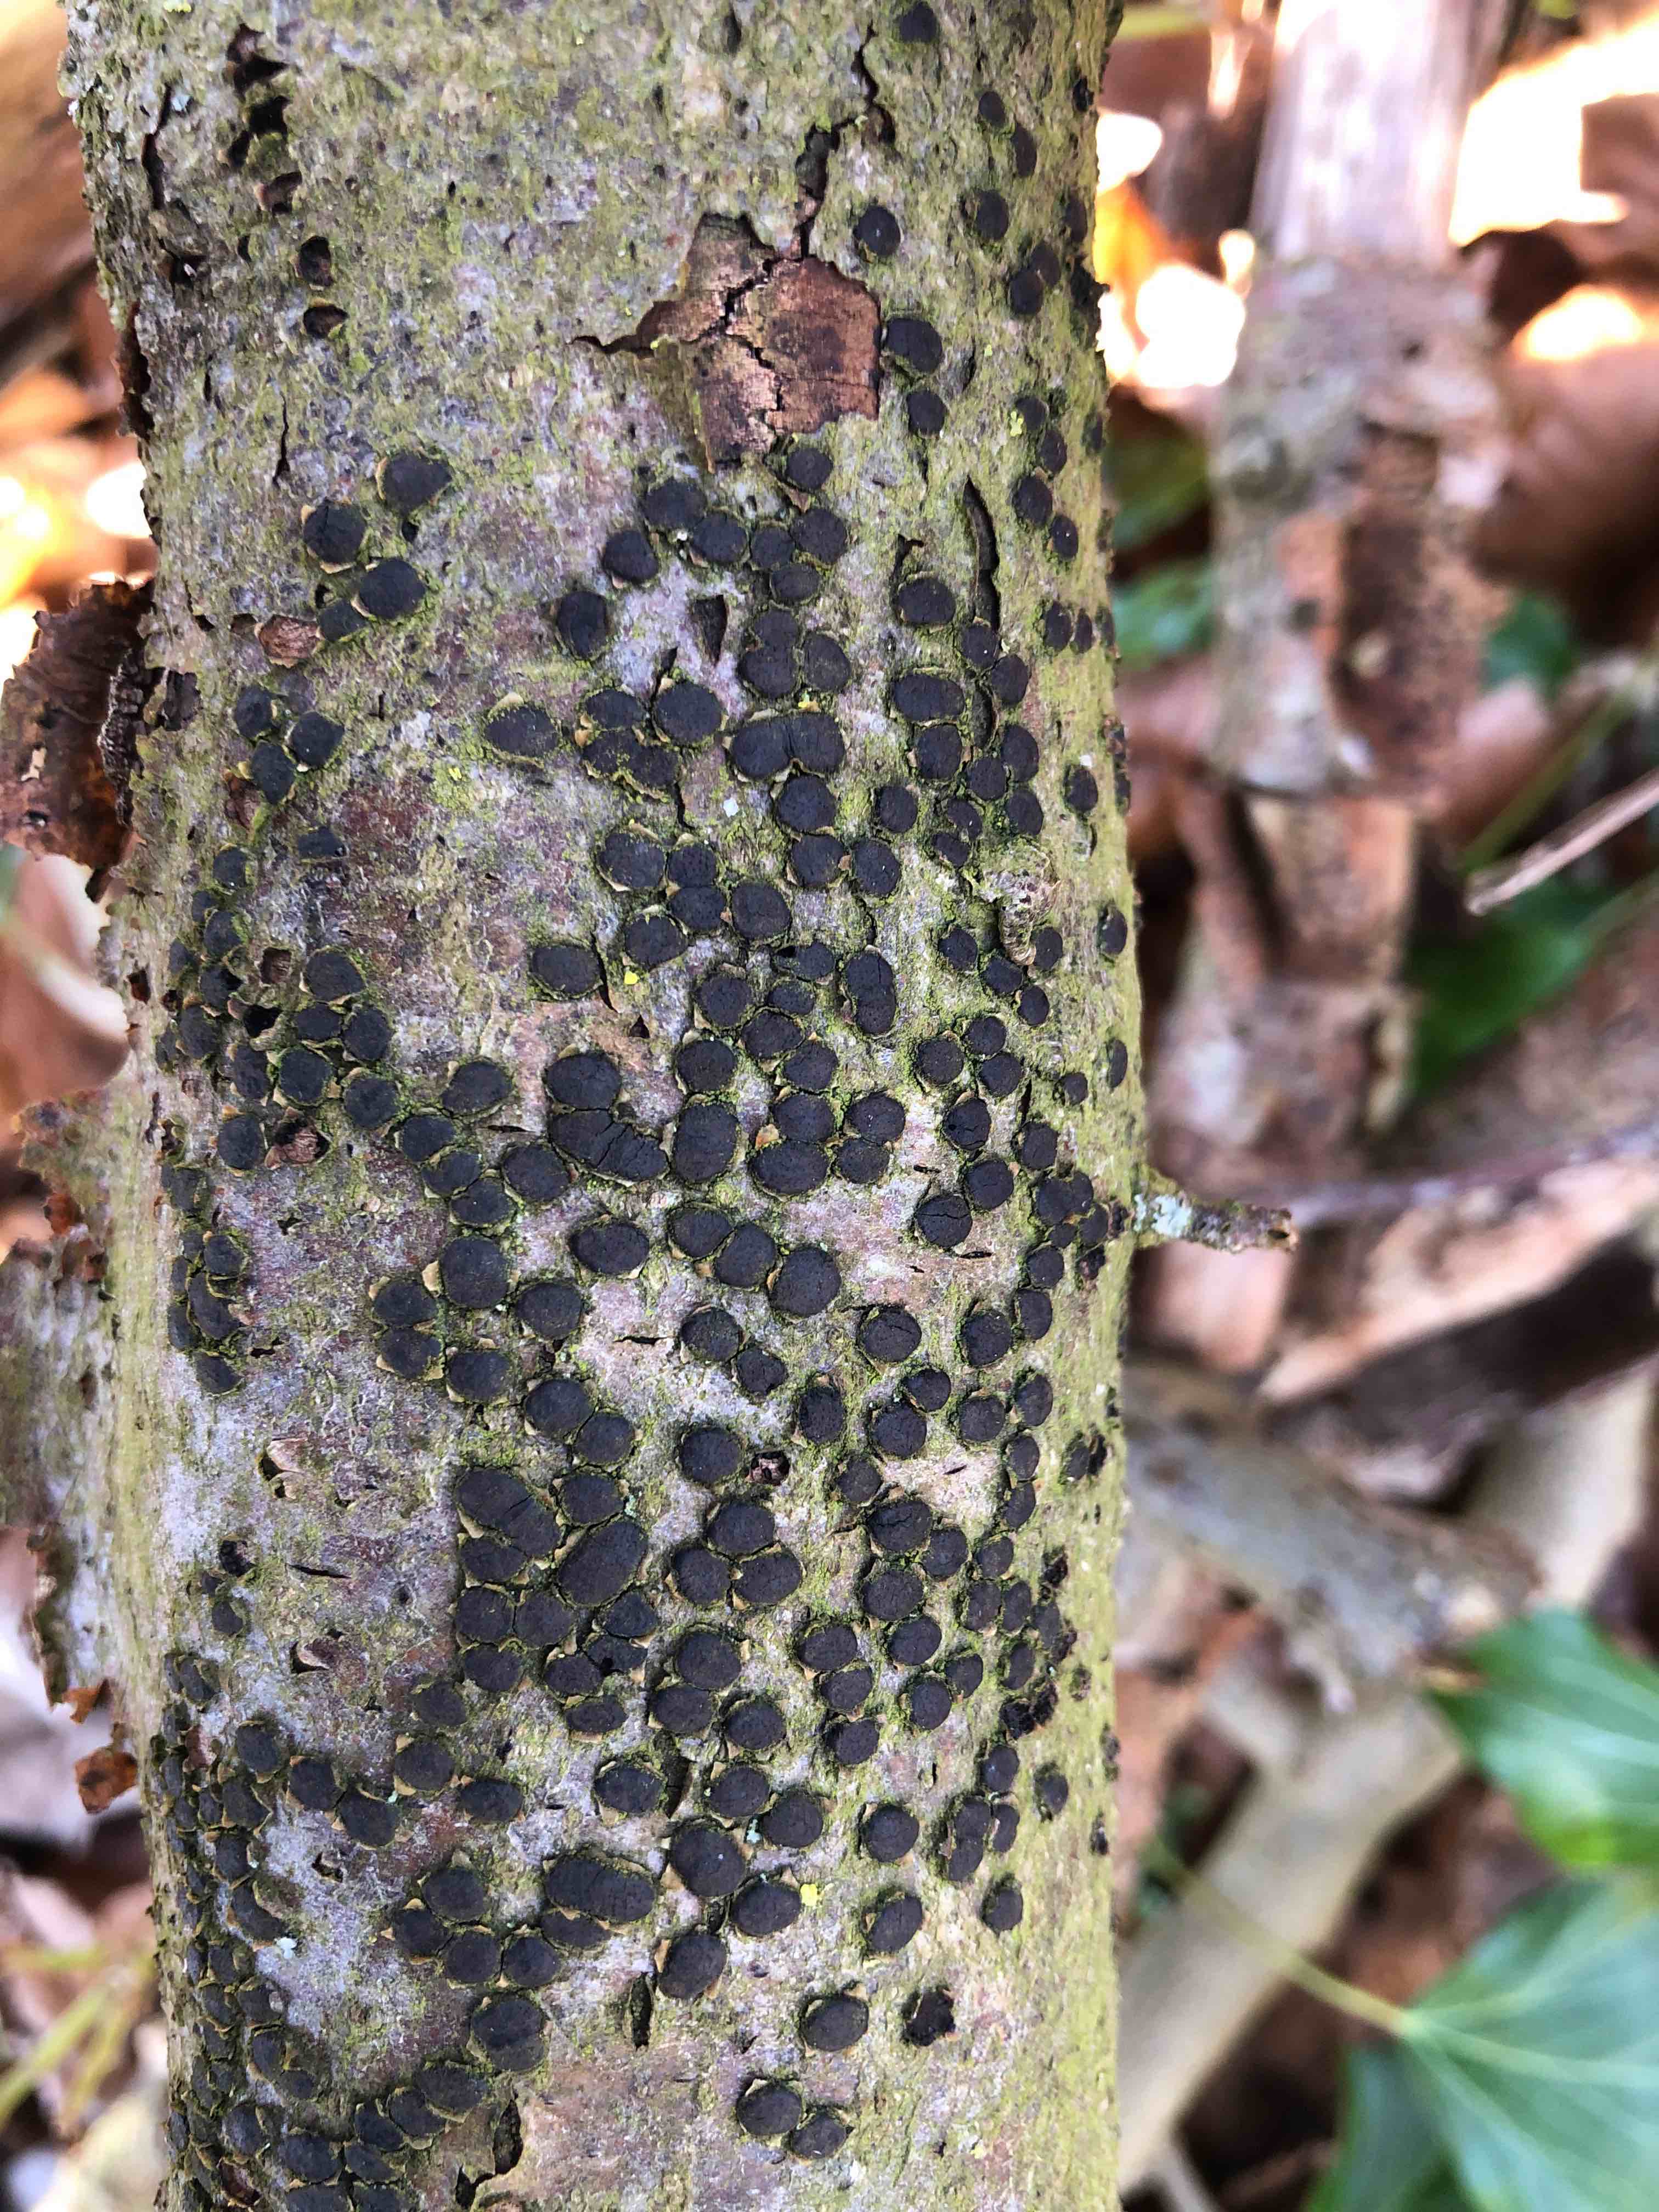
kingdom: Fungi
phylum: Ascomycota
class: Sordariomycetes
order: Xylariales
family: Diatrypaceae
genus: Diatrype
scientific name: Diatrype disciformis
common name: kant-kulskorpe
